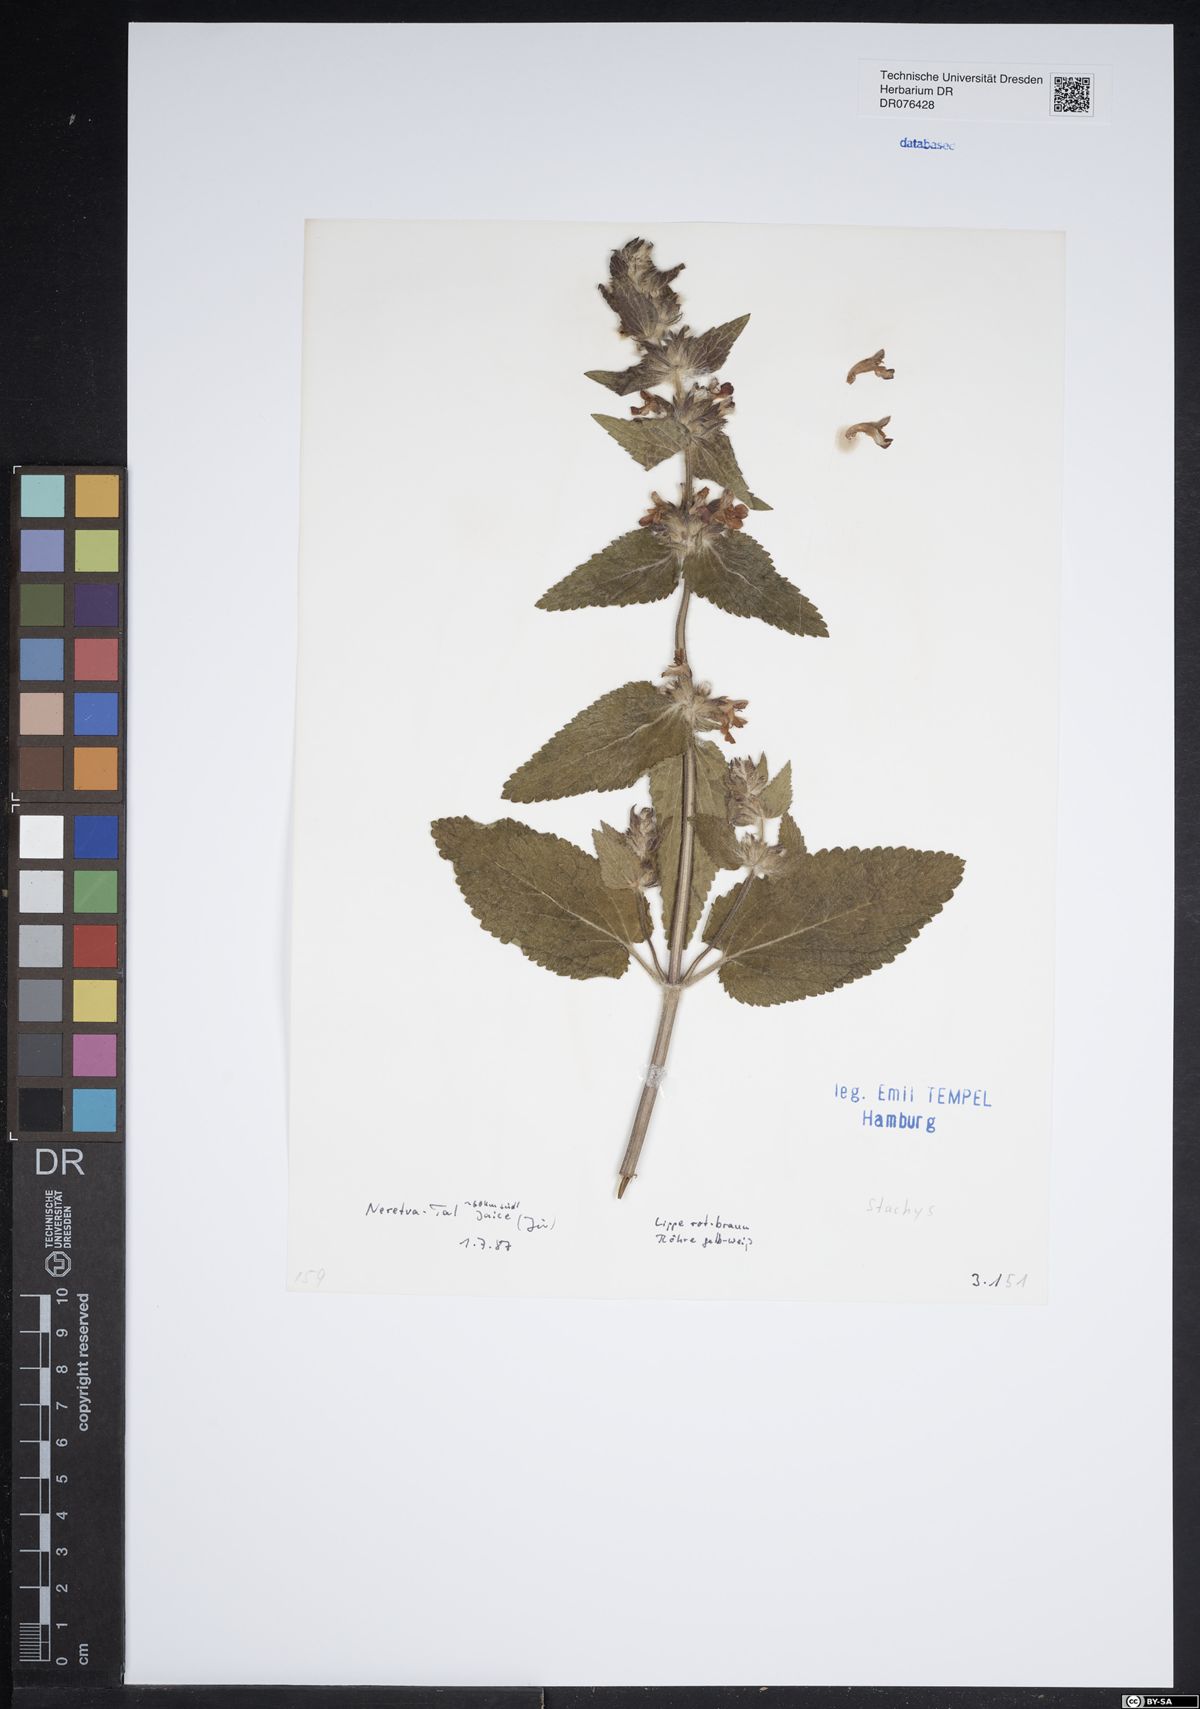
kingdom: Plantae
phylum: Tracheophyta
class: Magnoliopsida
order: Lamiales
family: Lamiaceae
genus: Stachys
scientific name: Stachys
